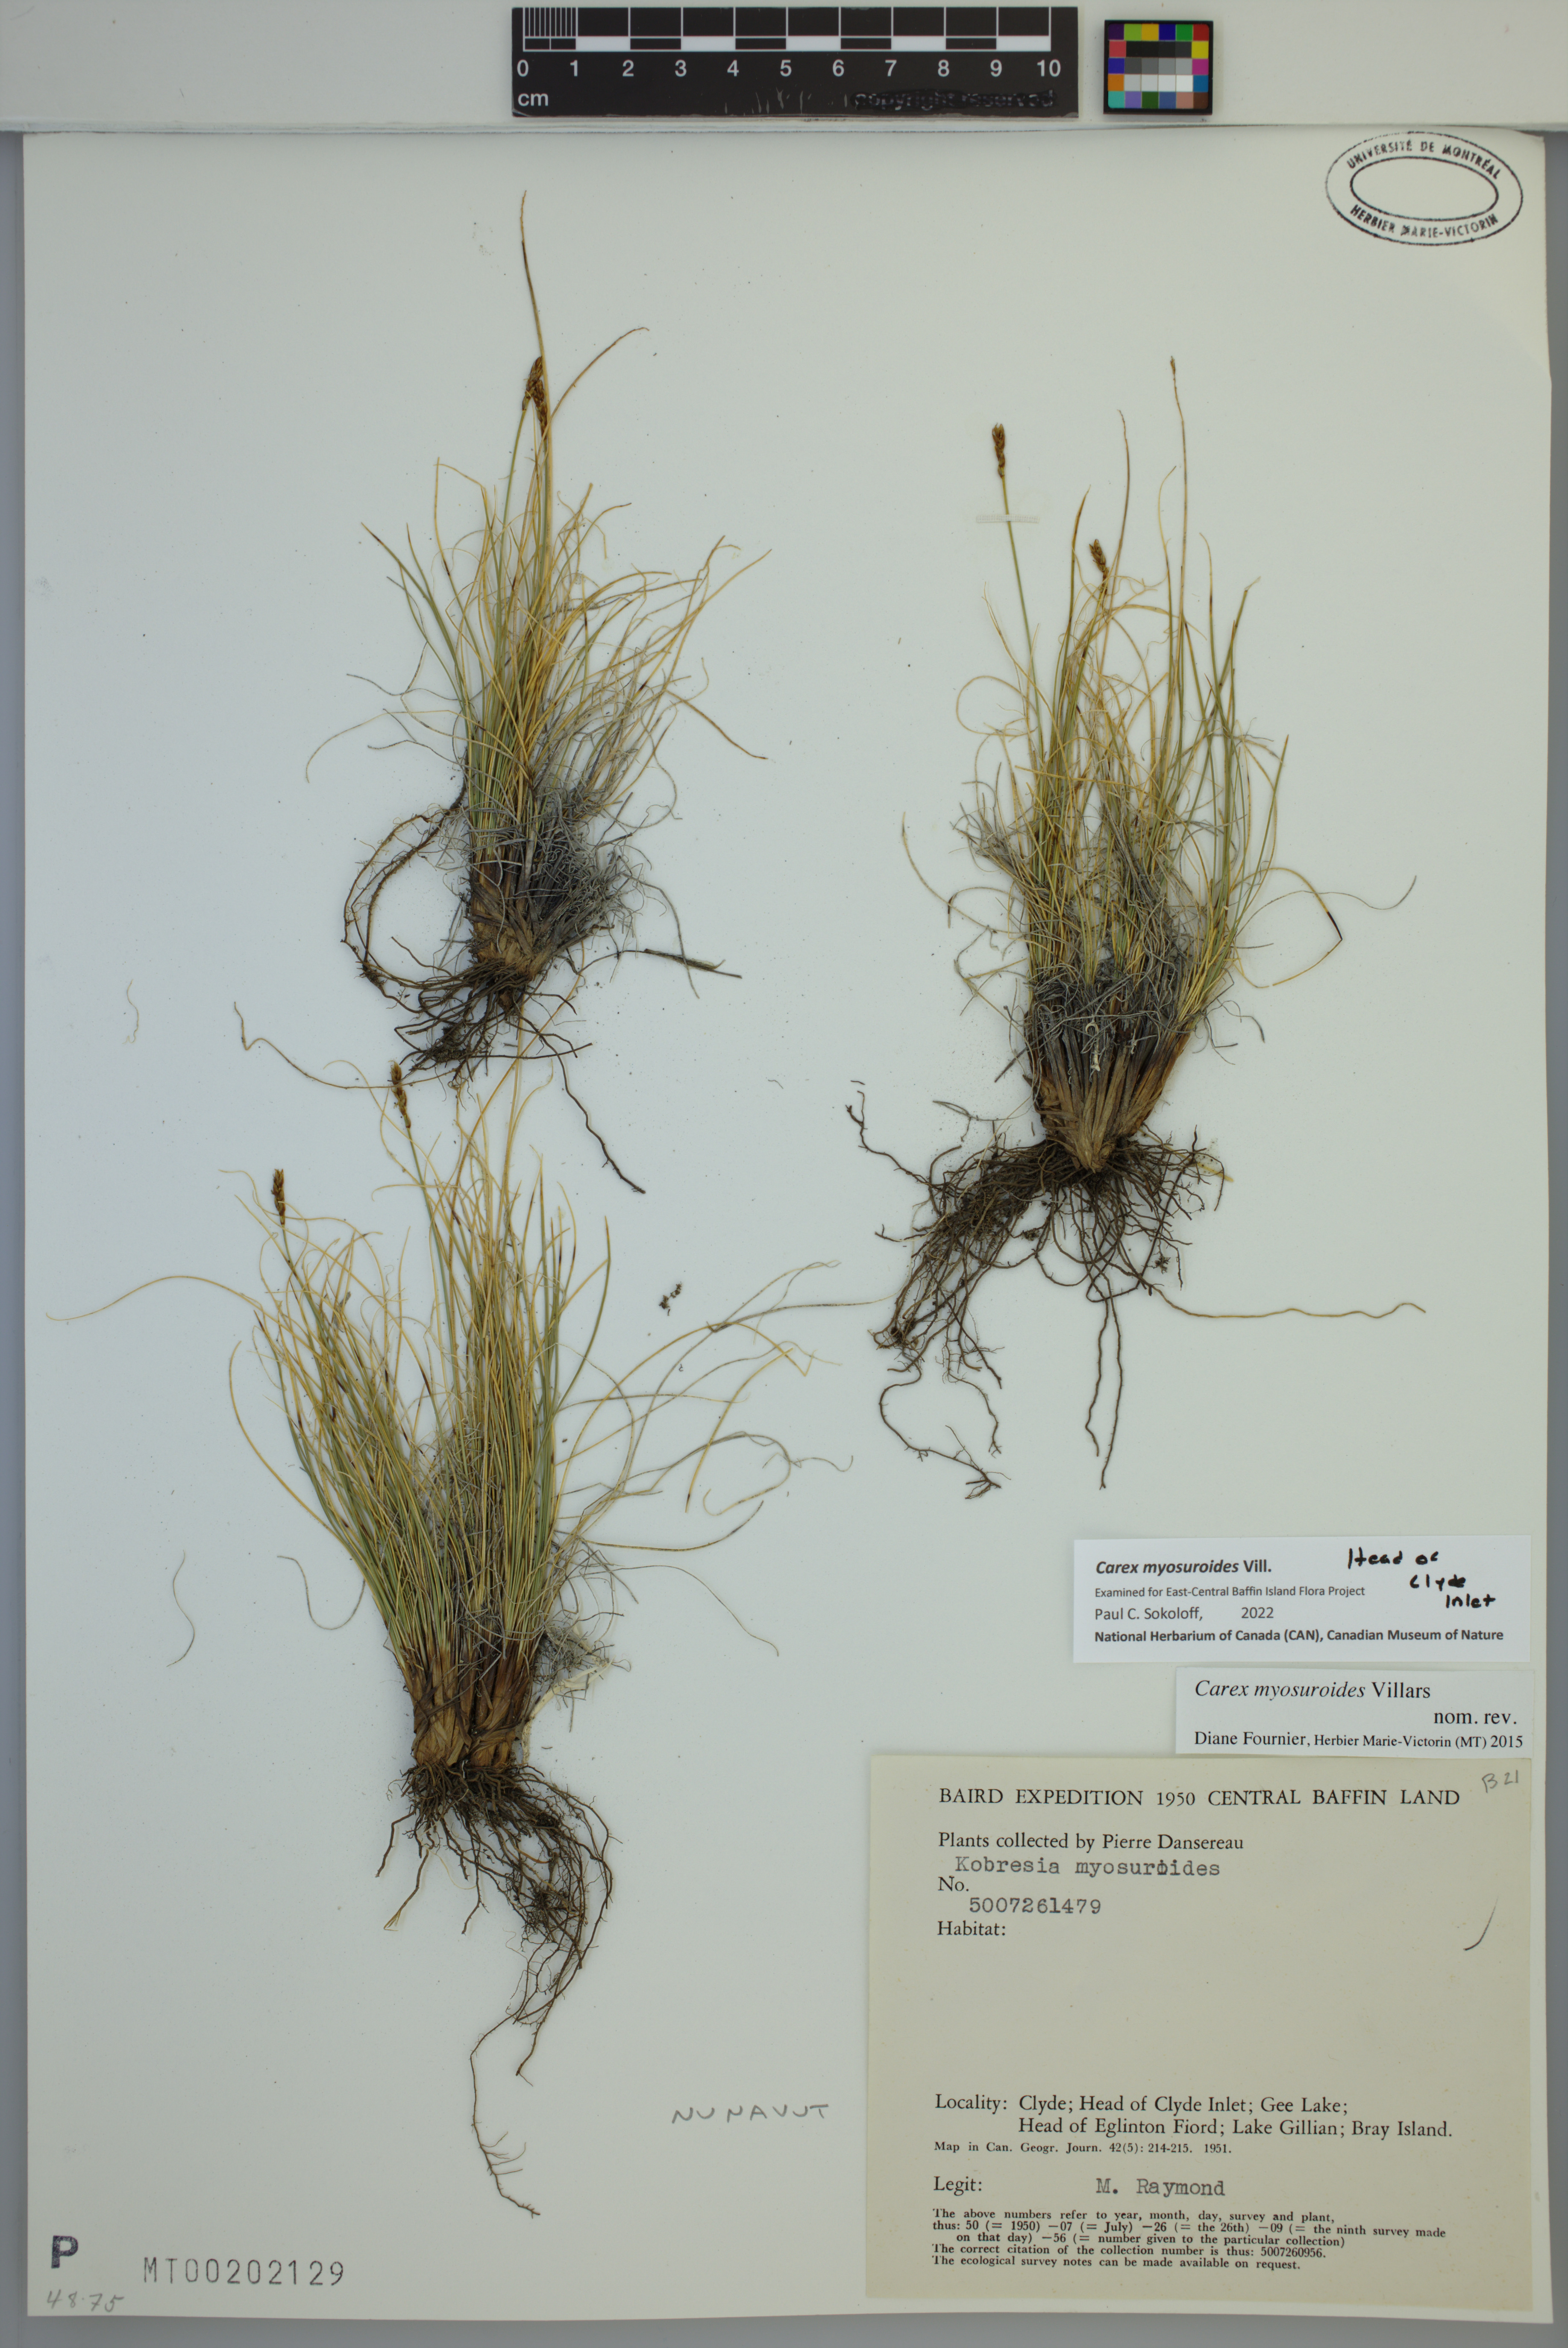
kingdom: Plantae
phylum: Tracheophyta
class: Liliopsida
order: Poales
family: Cyperaceae
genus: Carex
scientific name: Carex myosuroides
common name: Bellard's bog sedge
